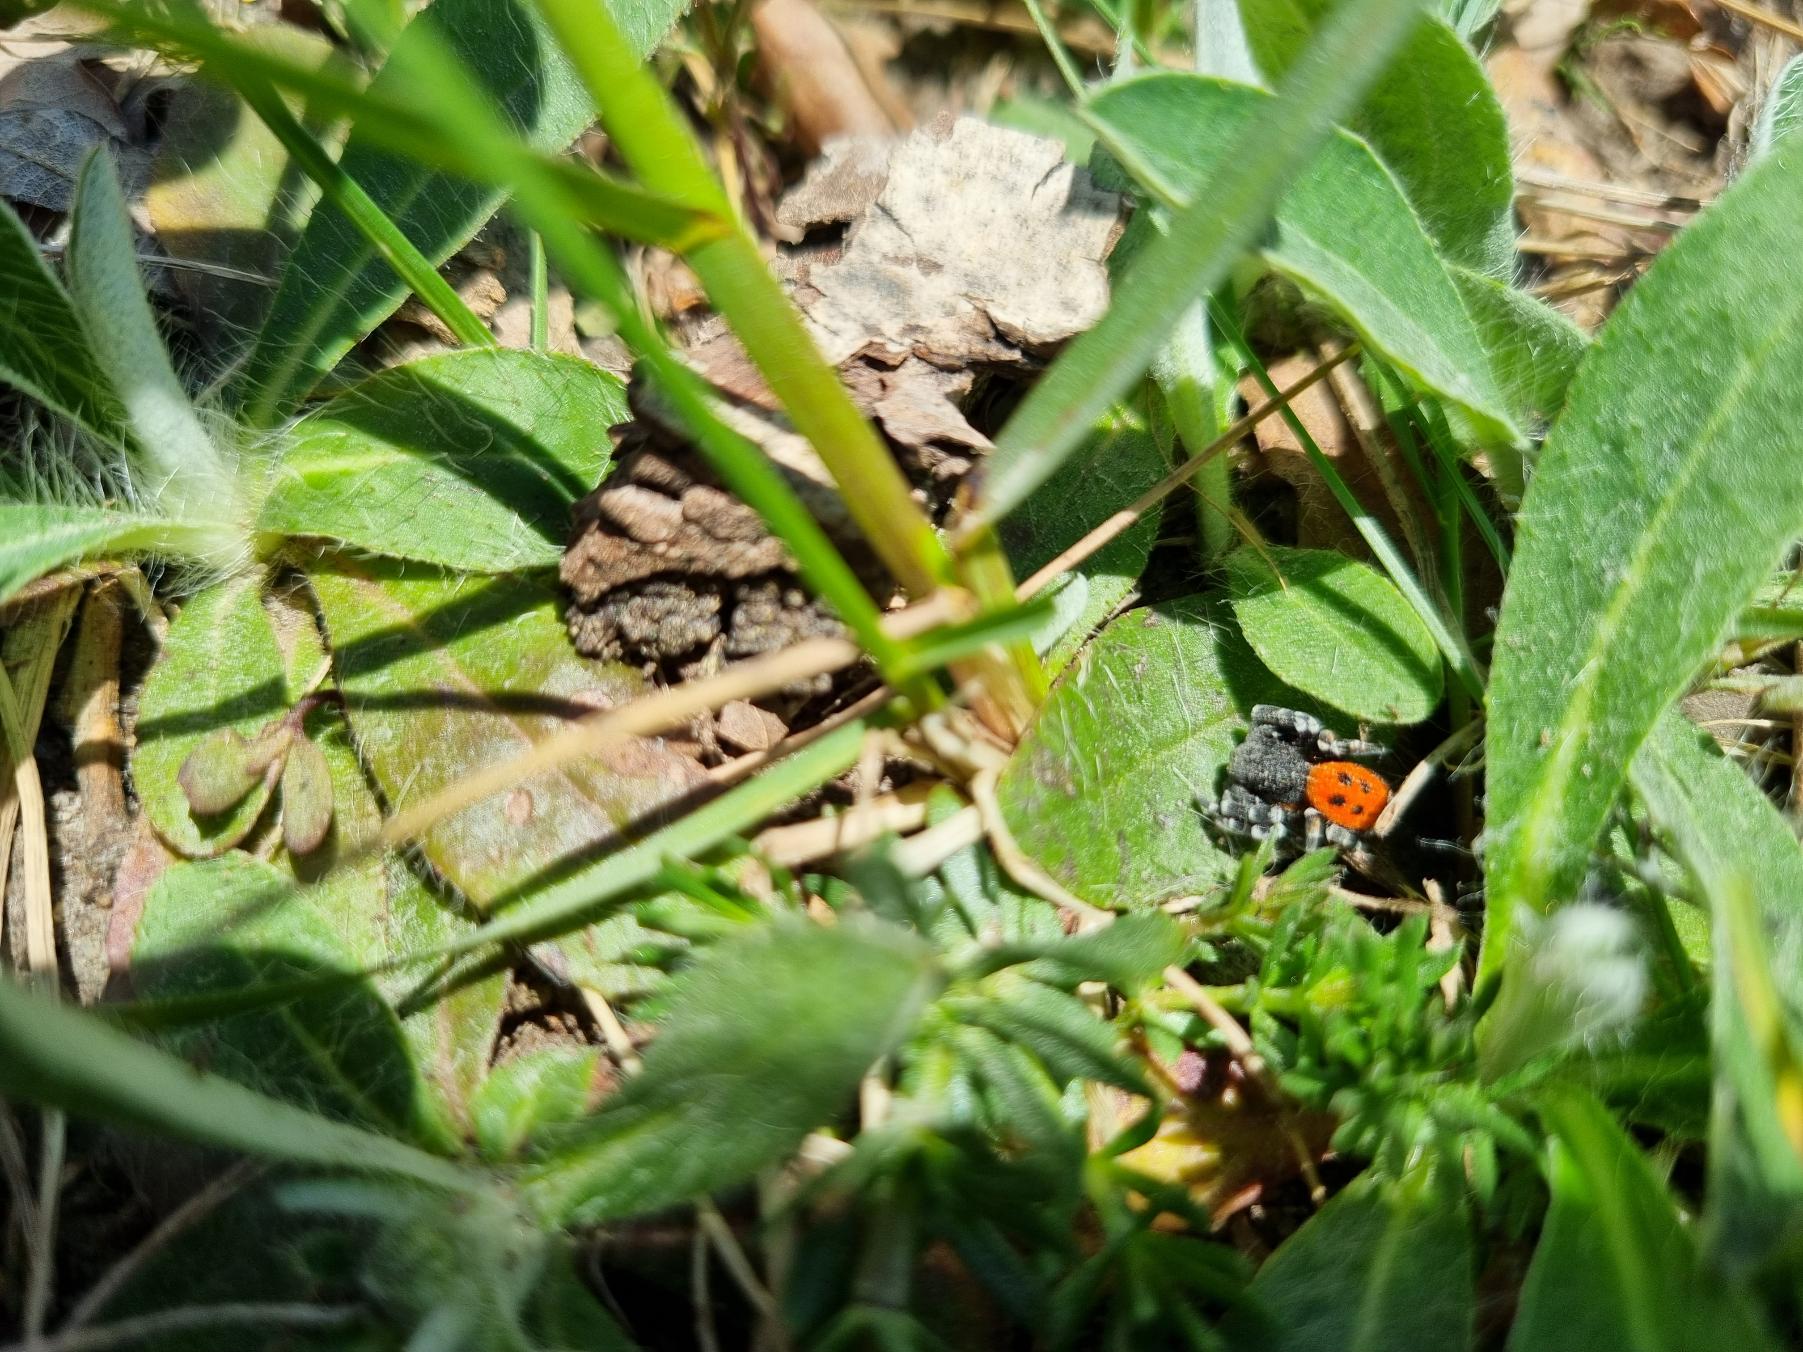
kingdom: Animalia
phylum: Arthropoda
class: Arachnida
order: Araneae
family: Eresidae
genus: Eresus
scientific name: Eresus sandaliatus
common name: Mariehøneedderkop
